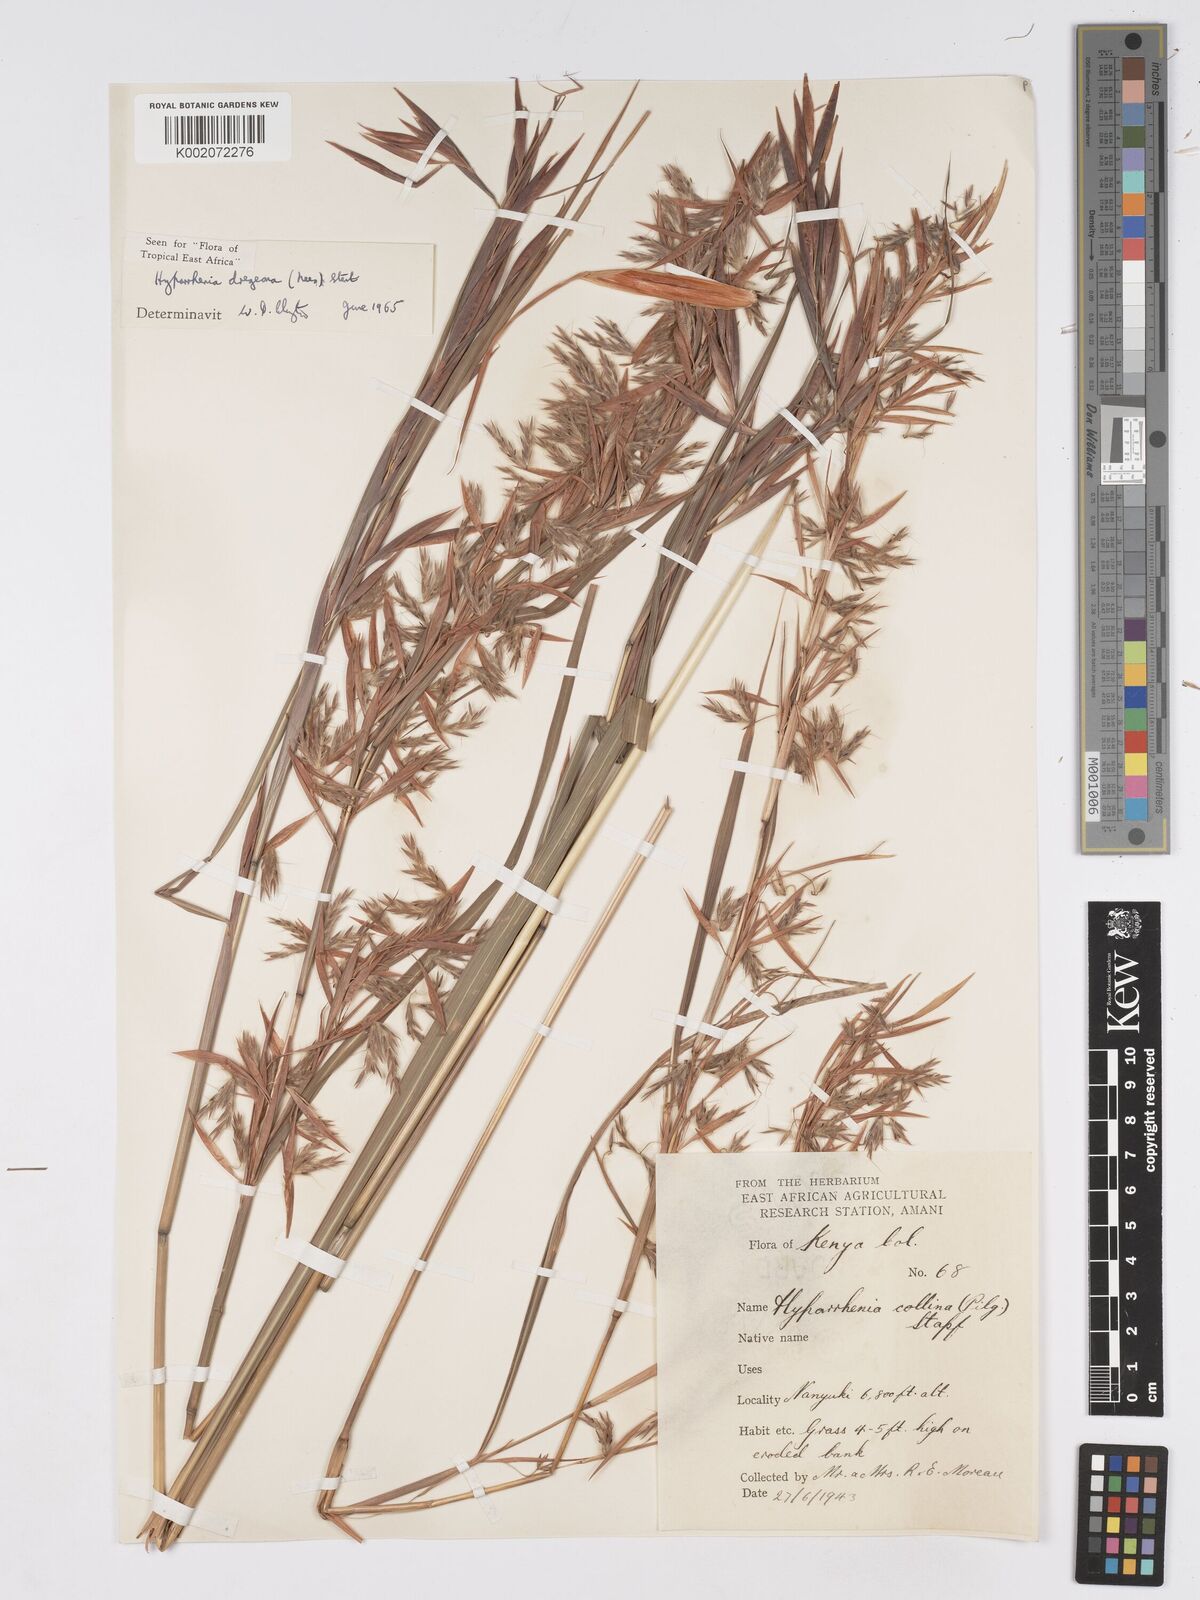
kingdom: Plantae
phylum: Tracheophyta
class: Liliopsida
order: Poales
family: Poaceae
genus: Hyparrhenia
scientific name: Hyparrhenia dregeana
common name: Silky thatching grass
